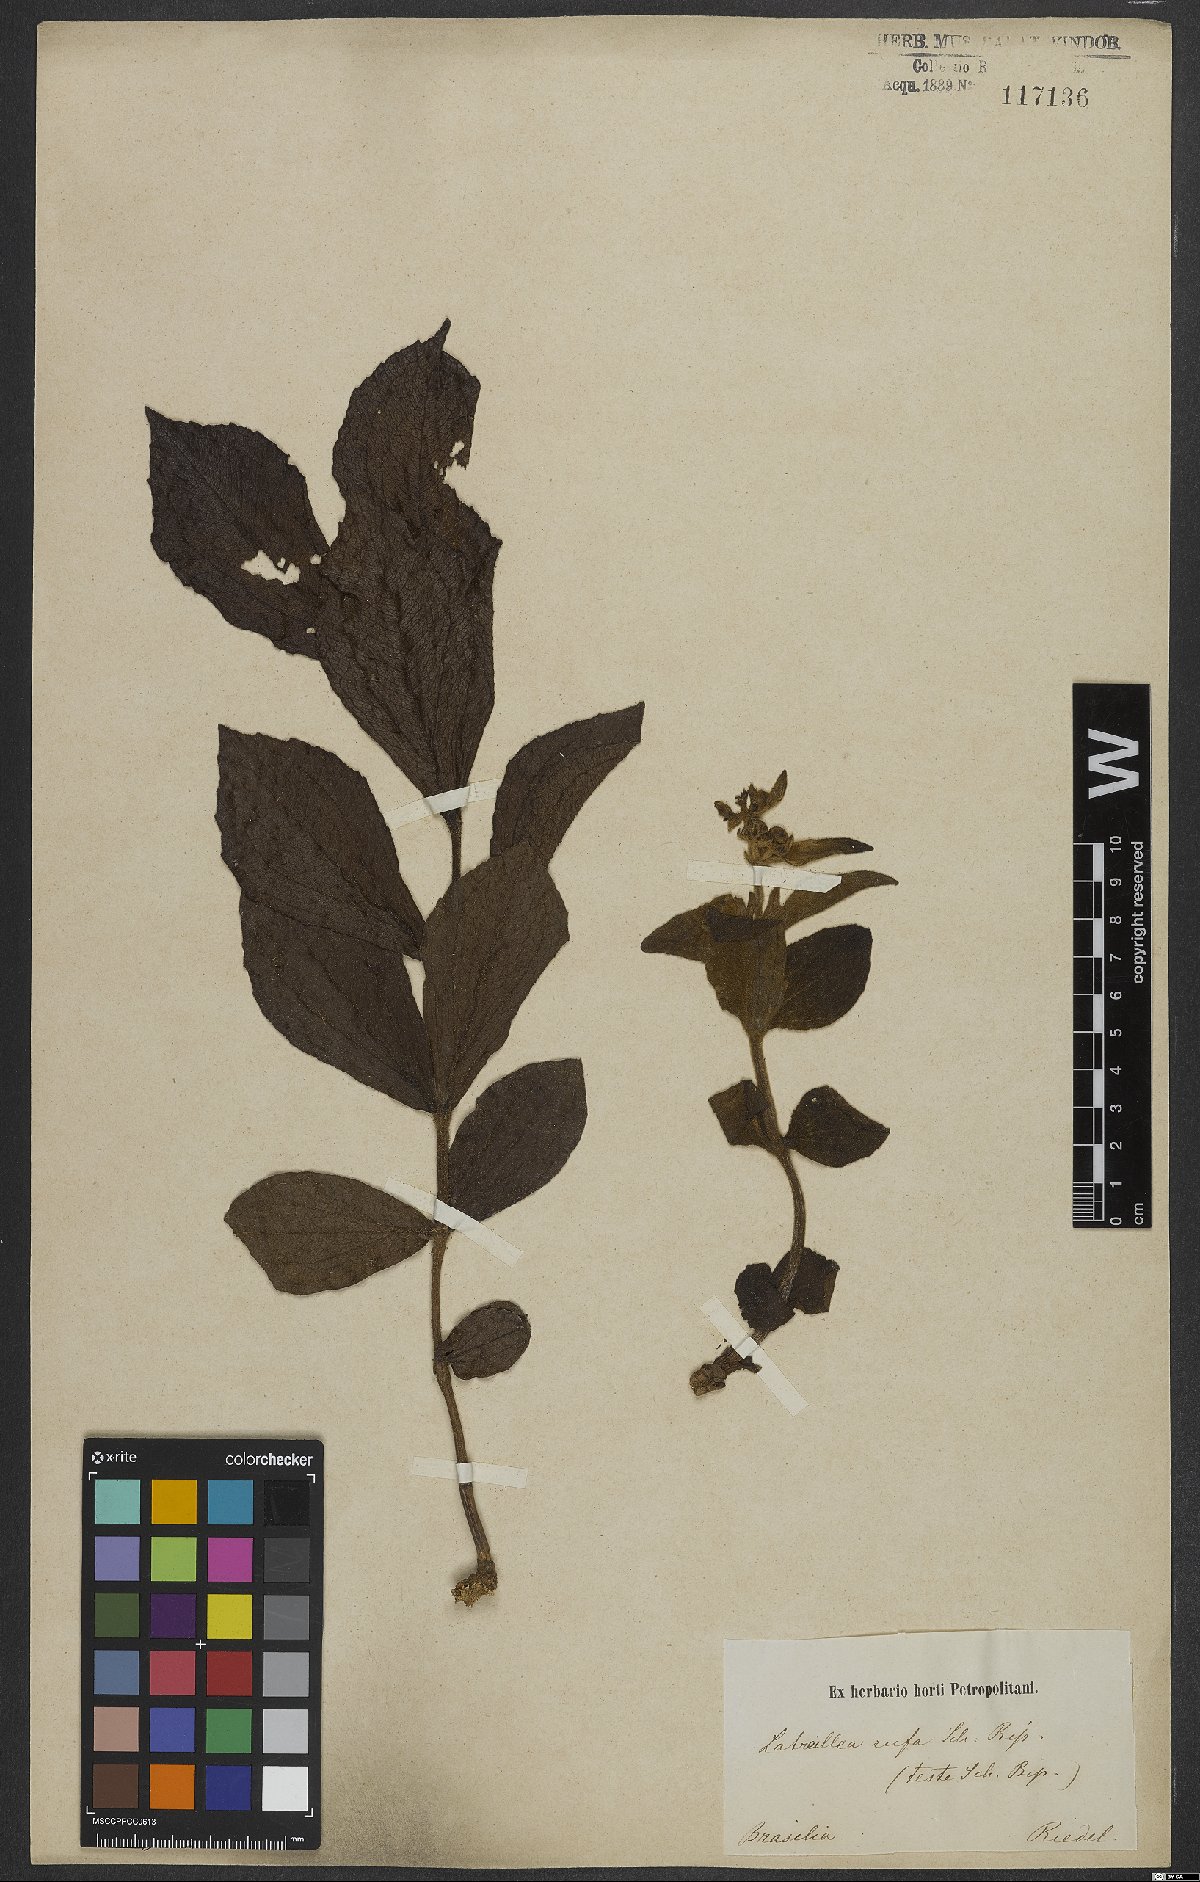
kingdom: Plantae
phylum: Tracheophyta
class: Magnoliopsida
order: Asterales
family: Asteraceae
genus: Ichthyothere
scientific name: Ichthyothere rufa
